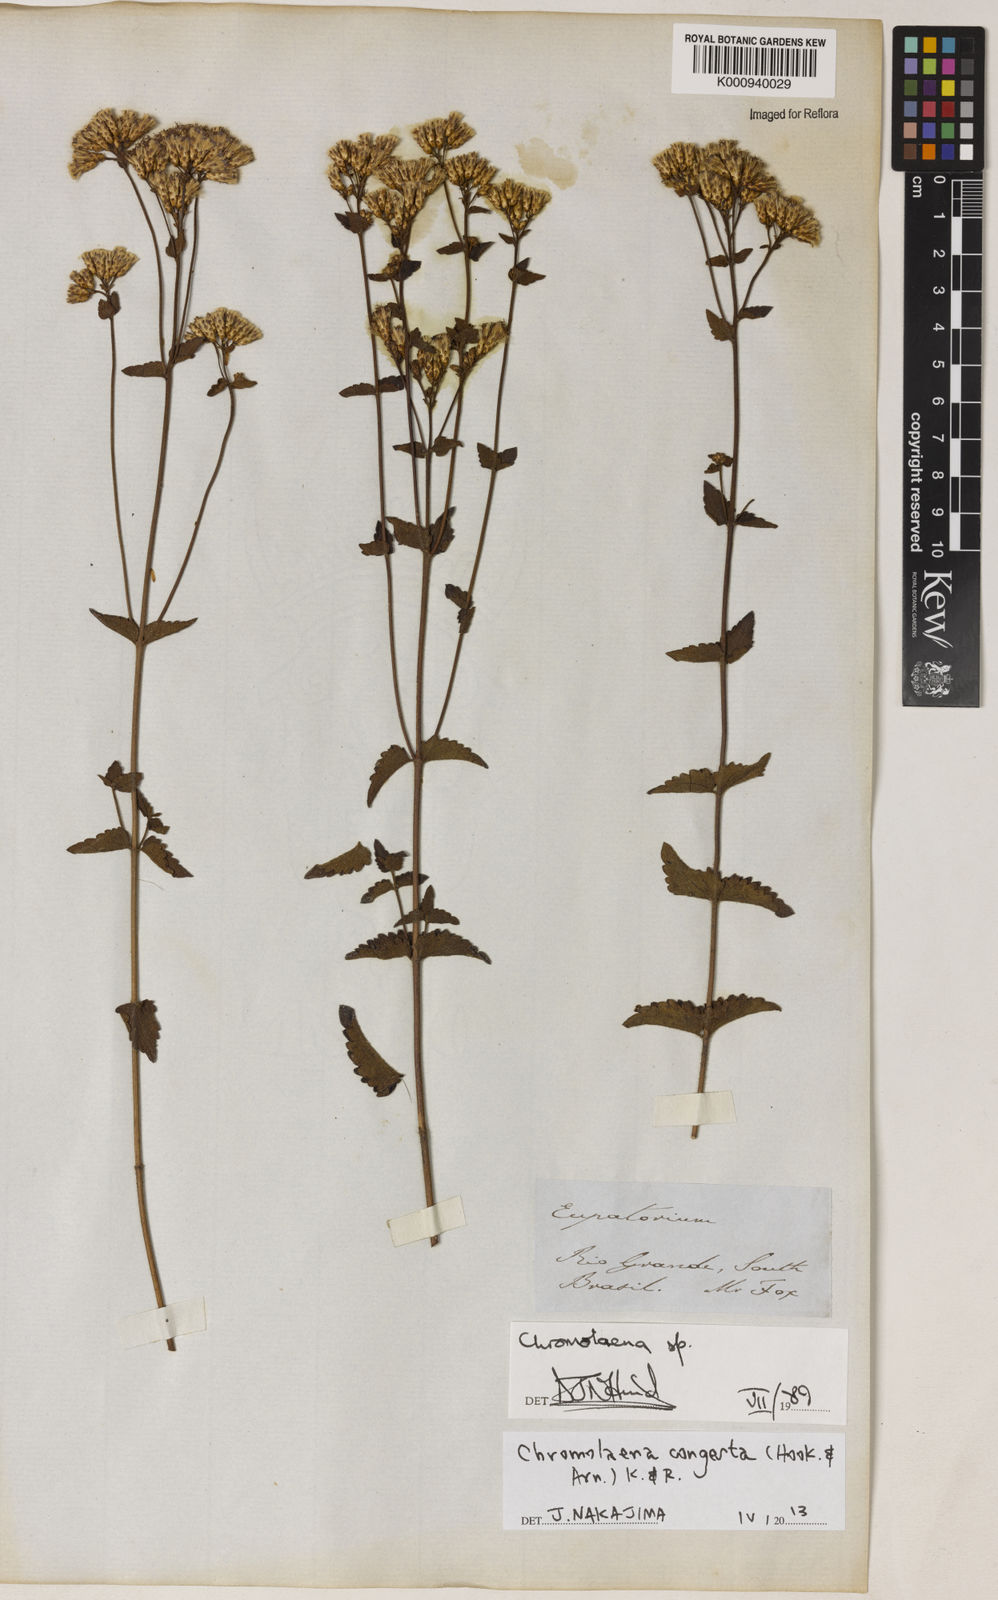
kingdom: Plantae
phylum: Tracheophyta
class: Magnoliopsida
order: Asterales
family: Asteraceae
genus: Chromolaena
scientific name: Chromolaena congesta
